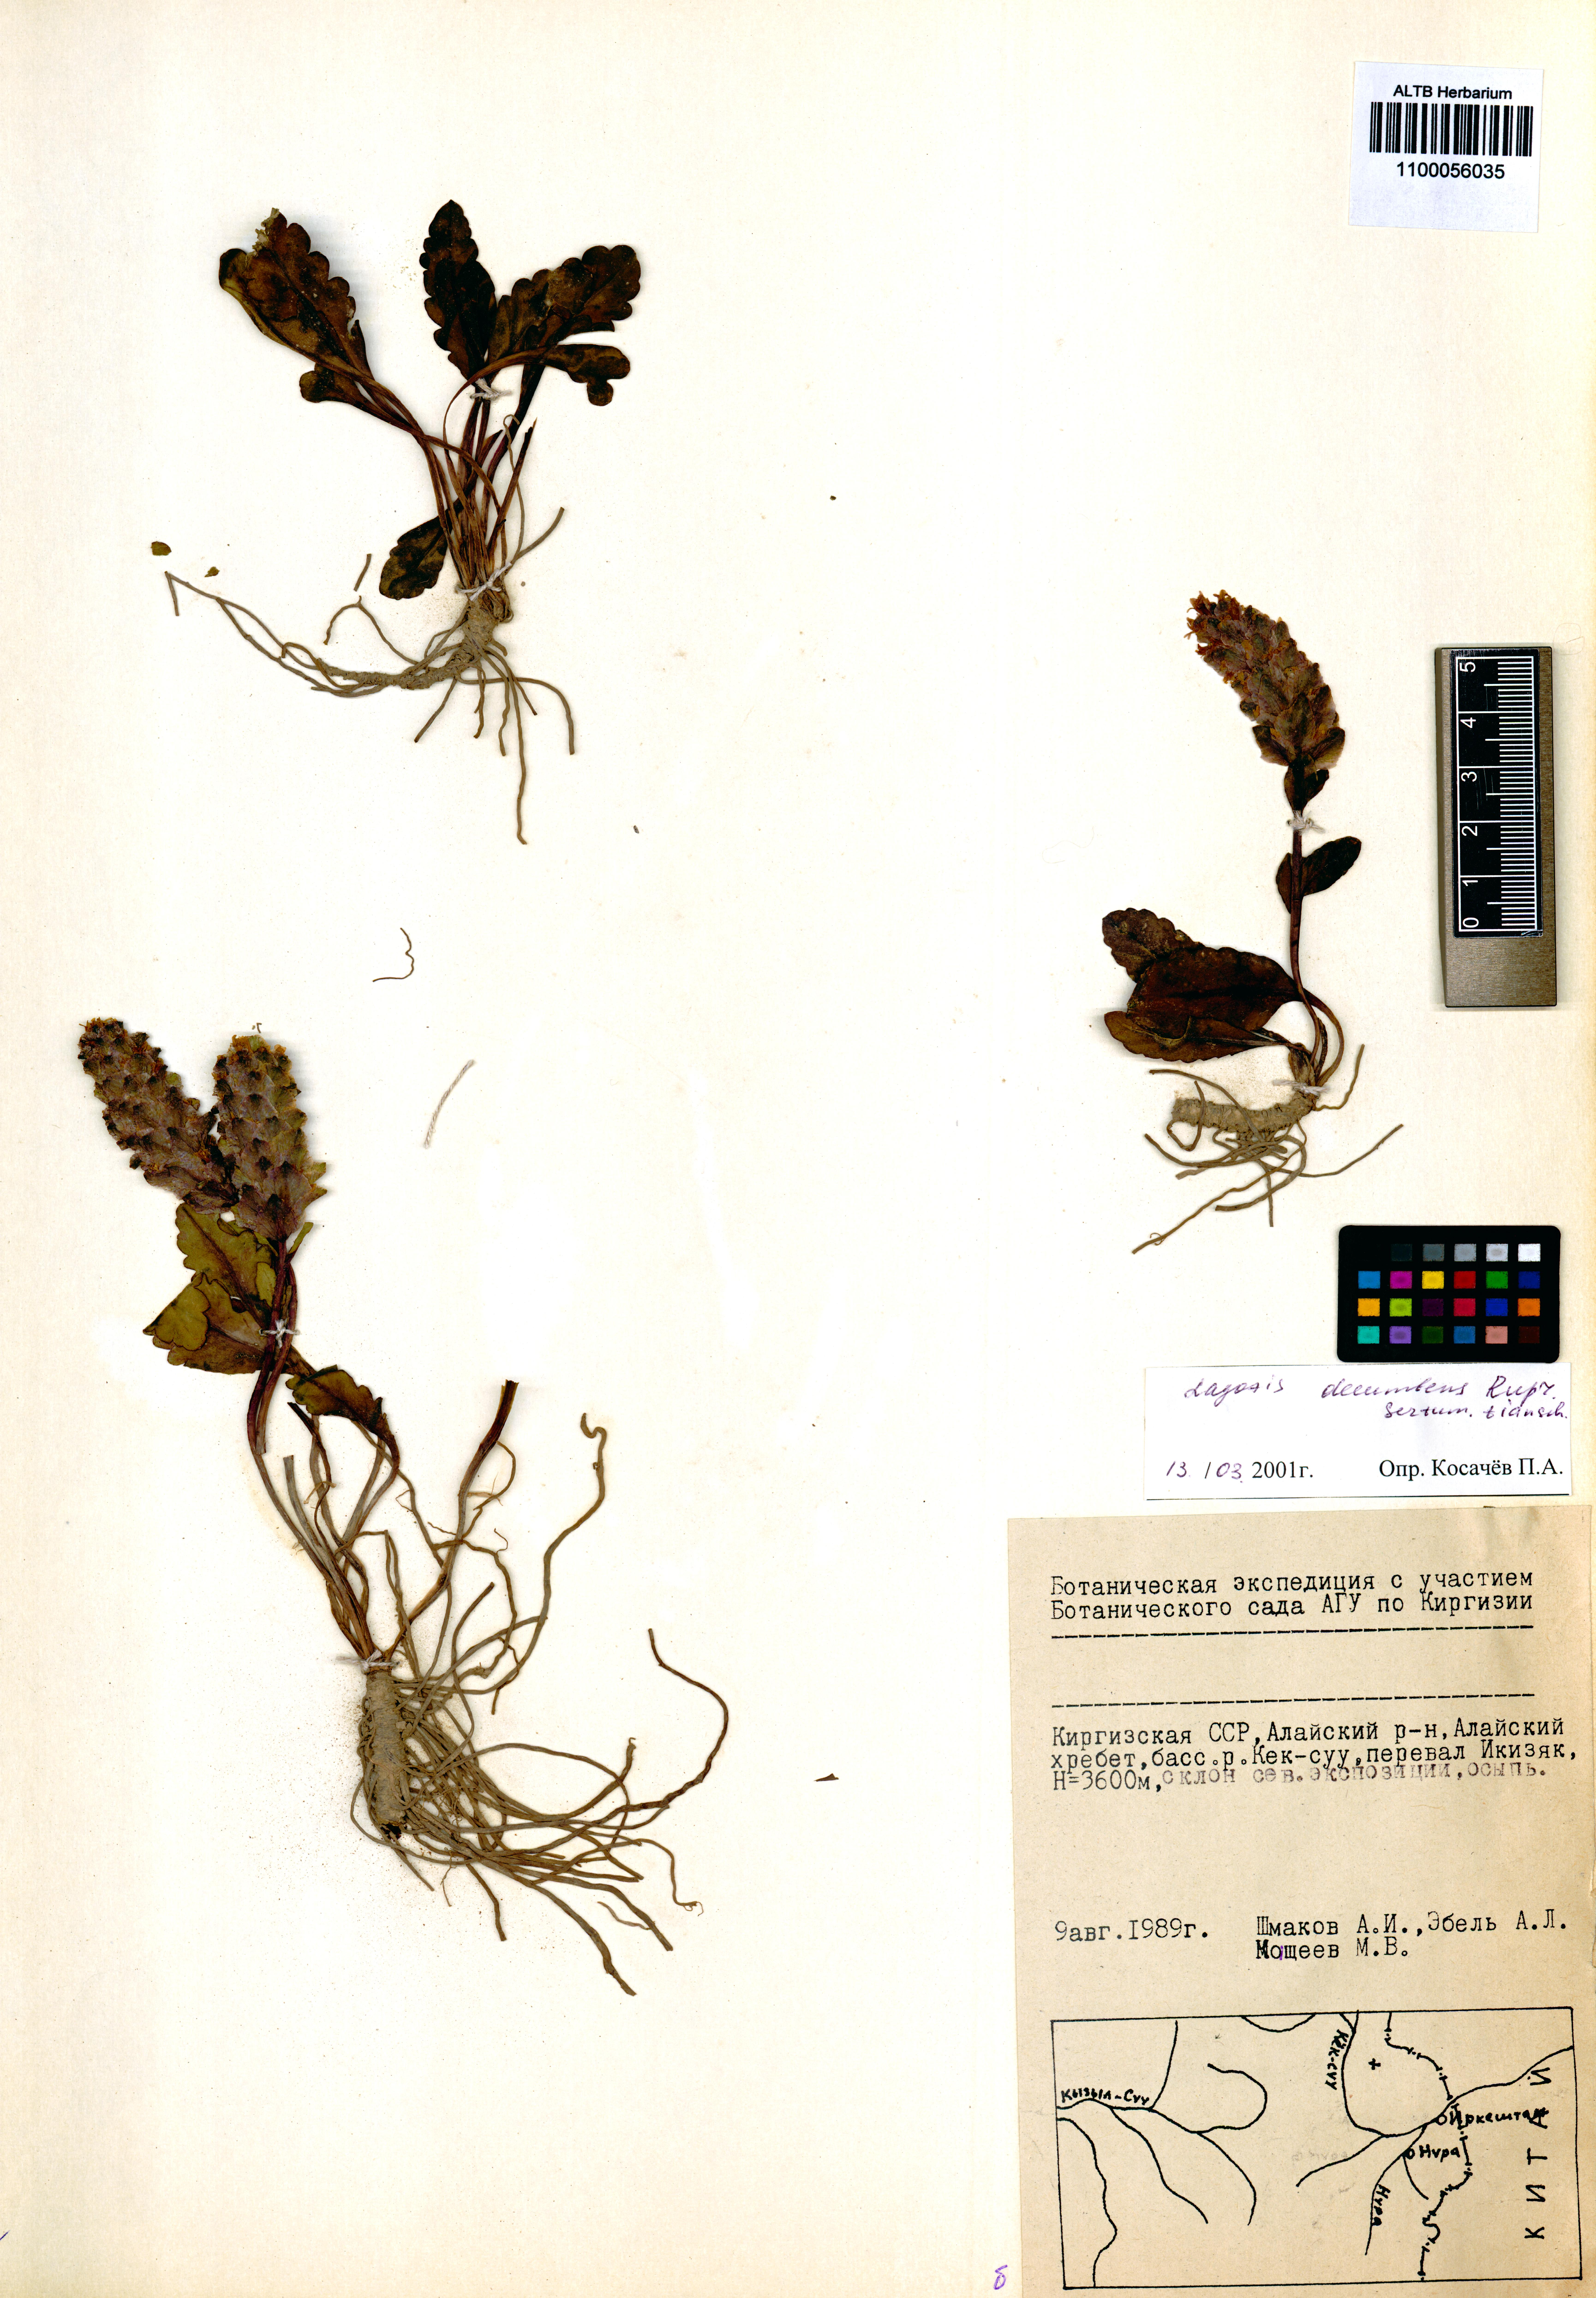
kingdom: Plantae
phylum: Tracheophyta
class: Magnoliopsida
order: Lamiales
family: Plantaginaceae
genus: Lagotis
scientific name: Lagotis decumbens
